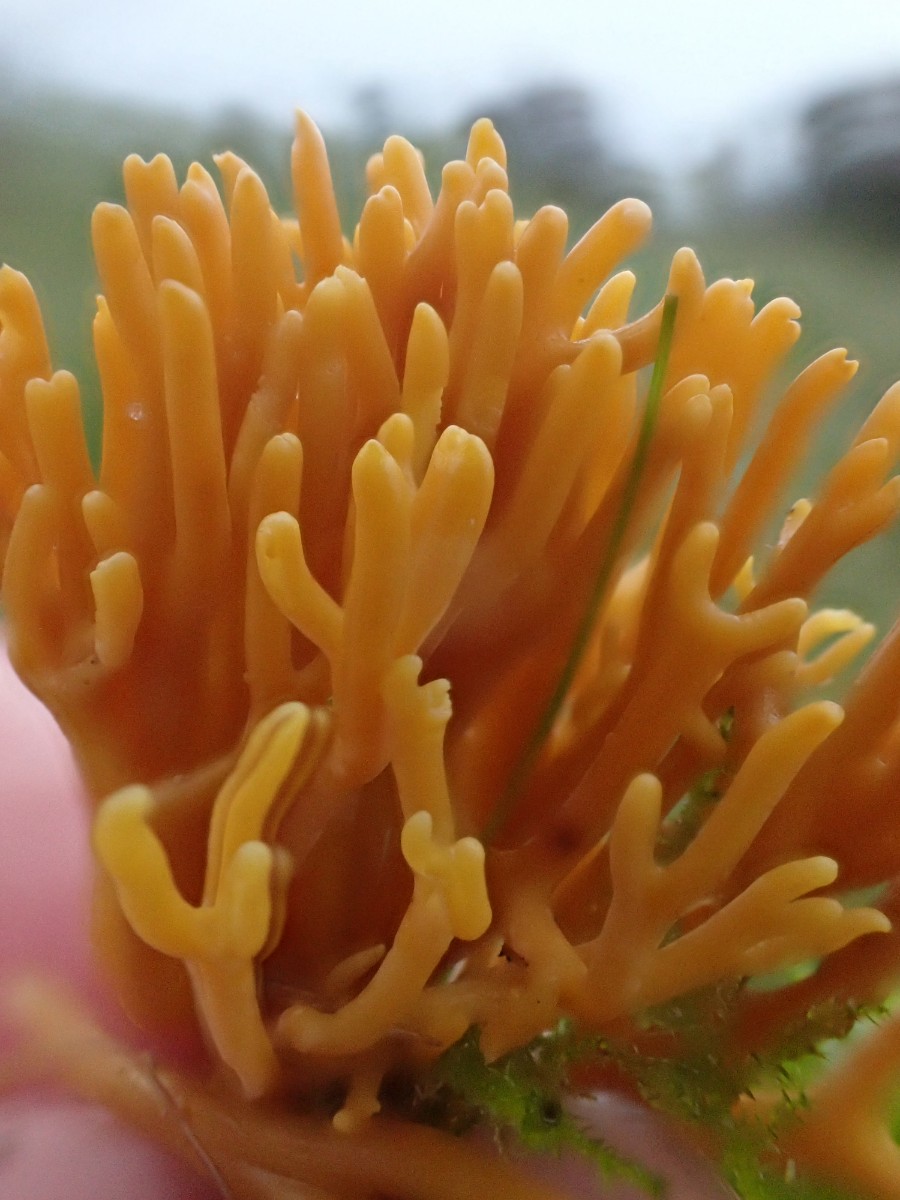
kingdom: Fungi
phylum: Basidiomycota
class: Agaricomycetes
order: Agaricales
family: Clavariaceae
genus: Clavulinopsis
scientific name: Clavulinopsis corniculata
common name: eng-køllesvamp
